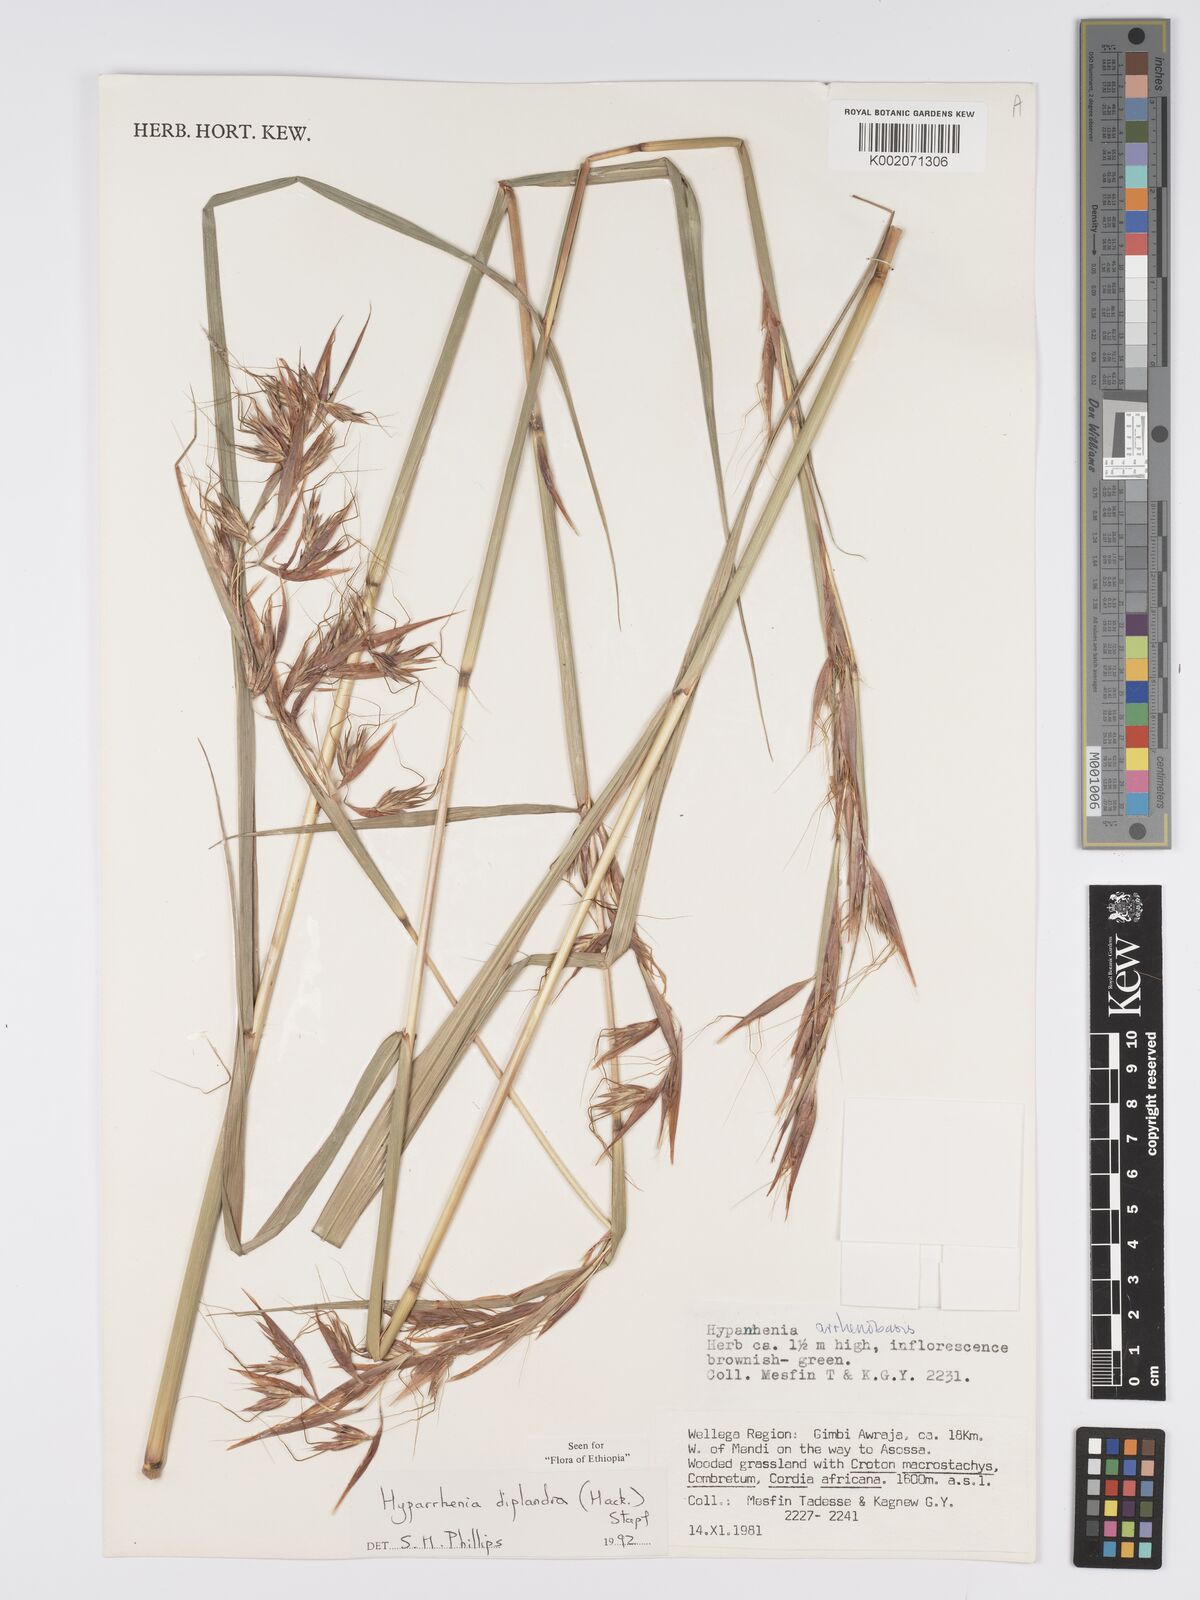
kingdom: Plantae
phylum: Tracheophyta
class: Liliopsida
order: Poales
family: Poaceae
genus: Hyparrhenia
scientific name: Hyparrhenia diplandra
